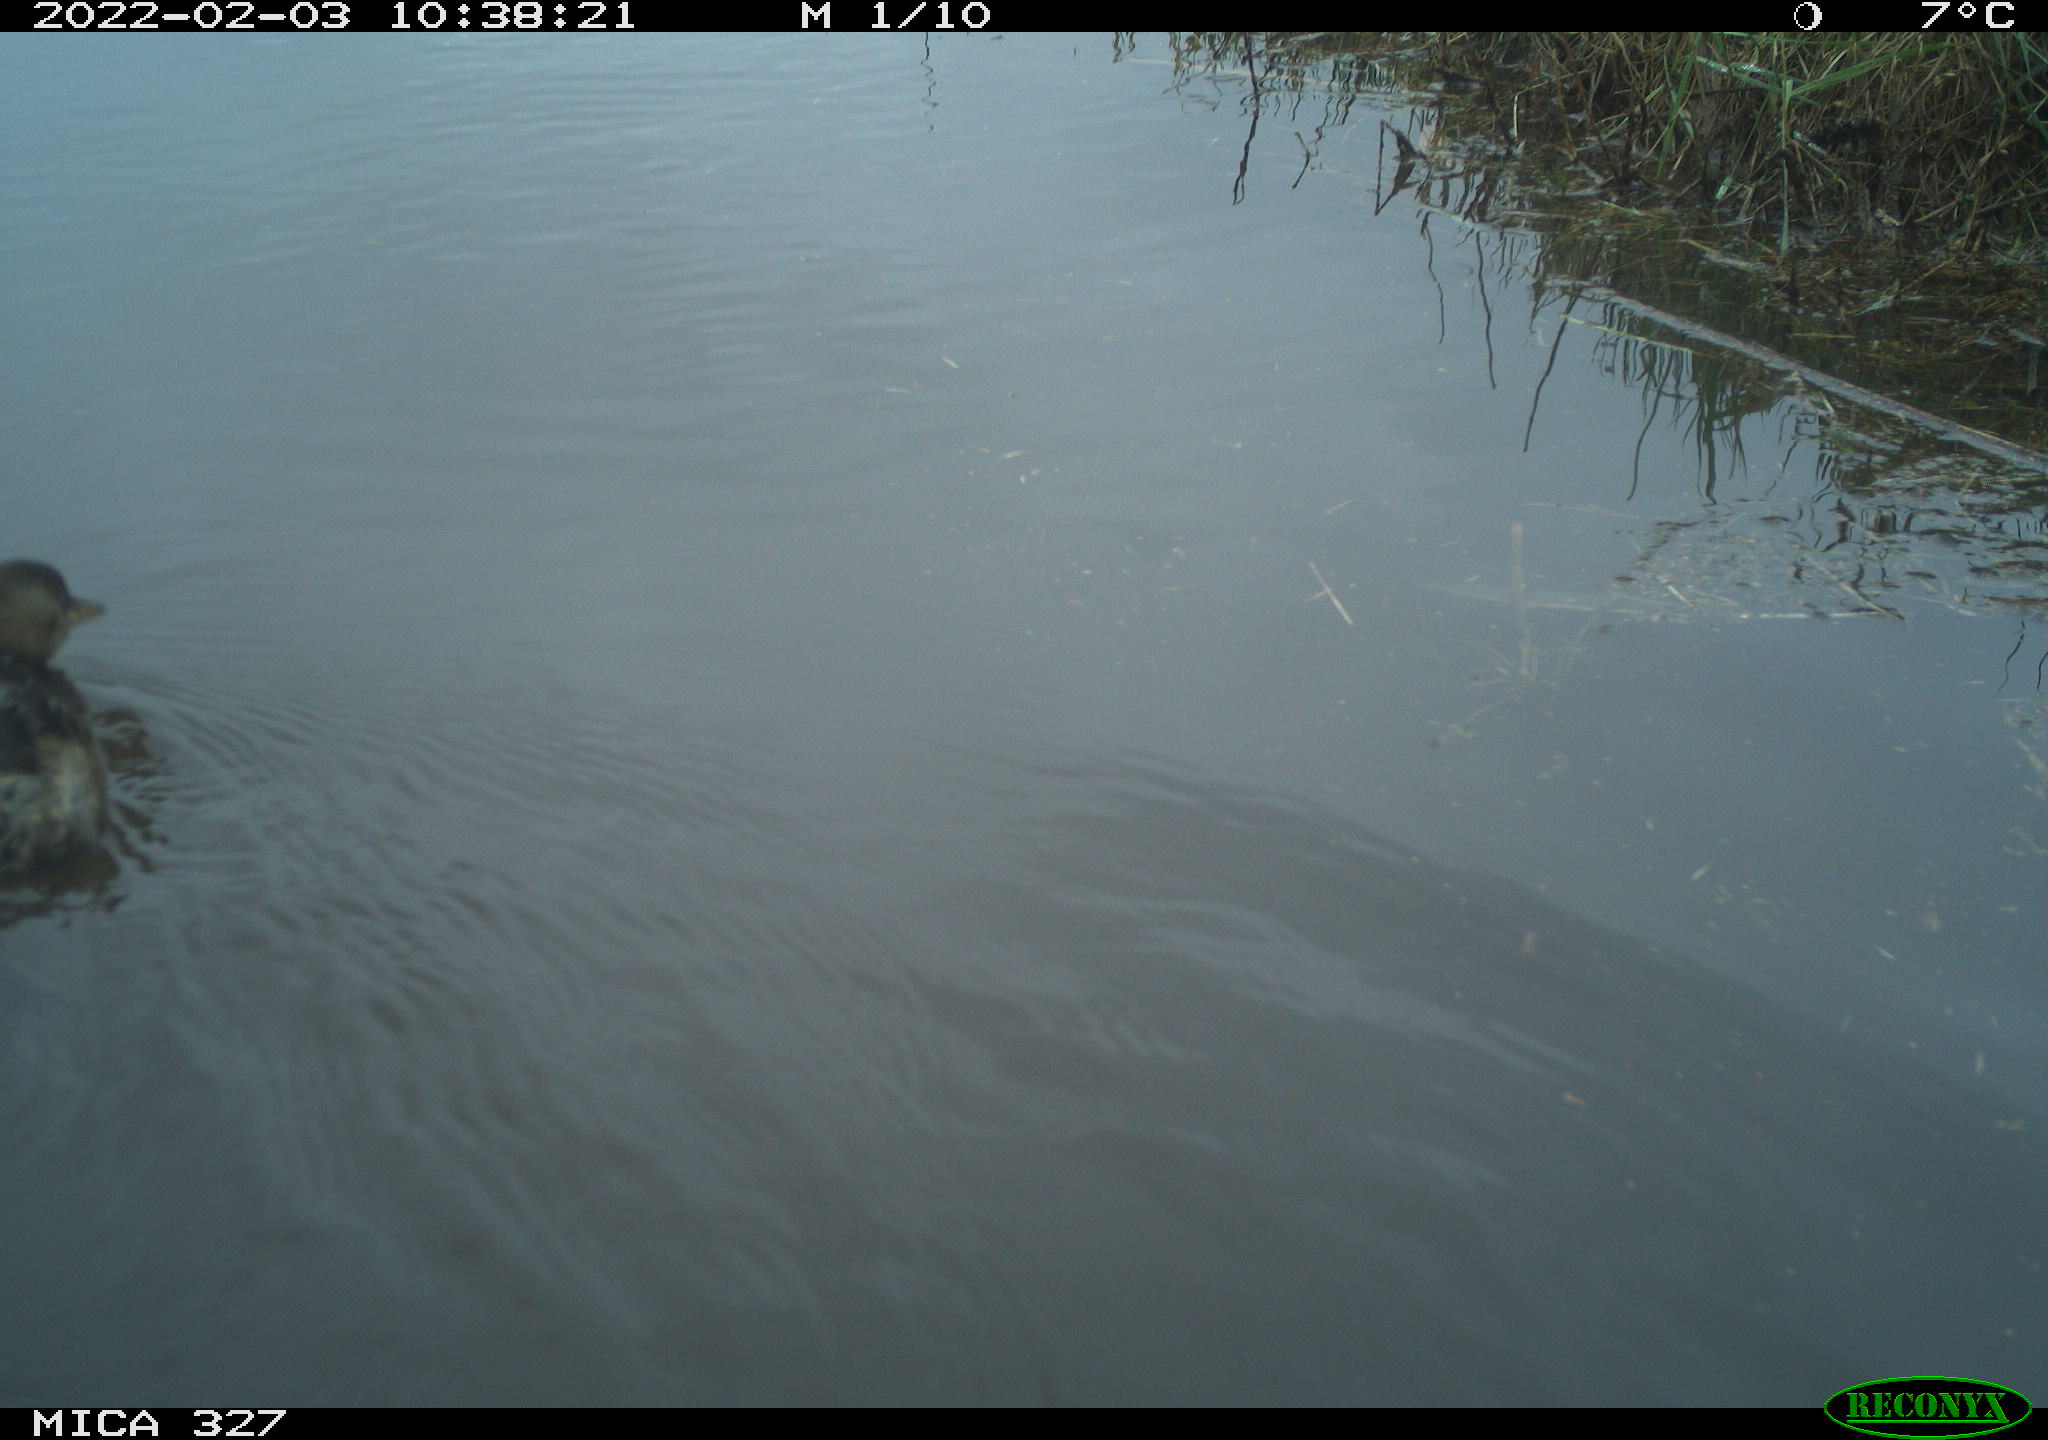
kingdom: Animalia
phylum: Chordata
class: Aves
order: Podicipediformes
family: Podicipedidae
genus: Tachybaptus
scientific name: Tachybaptus ruficollis
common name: Little grebe
